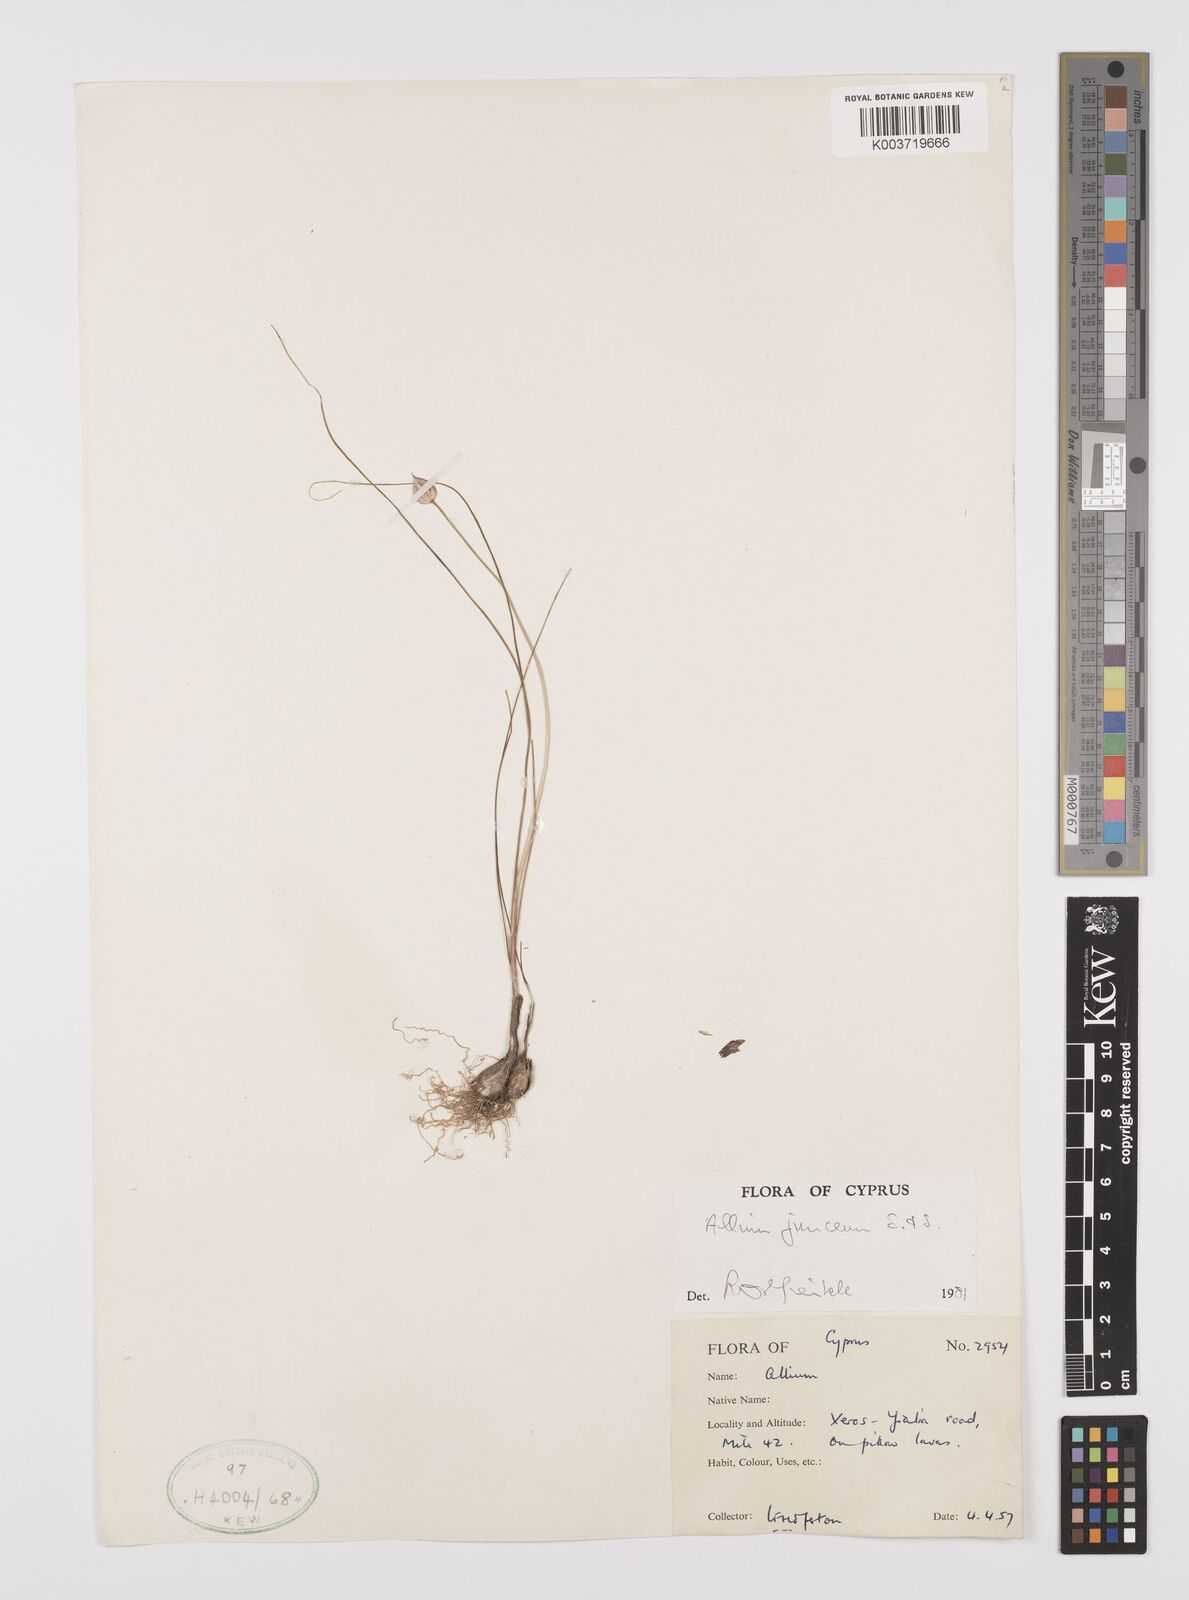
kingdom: Plantae
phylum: Tracheophyta
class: Liliopsida
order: Asparagales
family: Amaryllidaceae
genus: Allium
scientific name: Allium junceum
